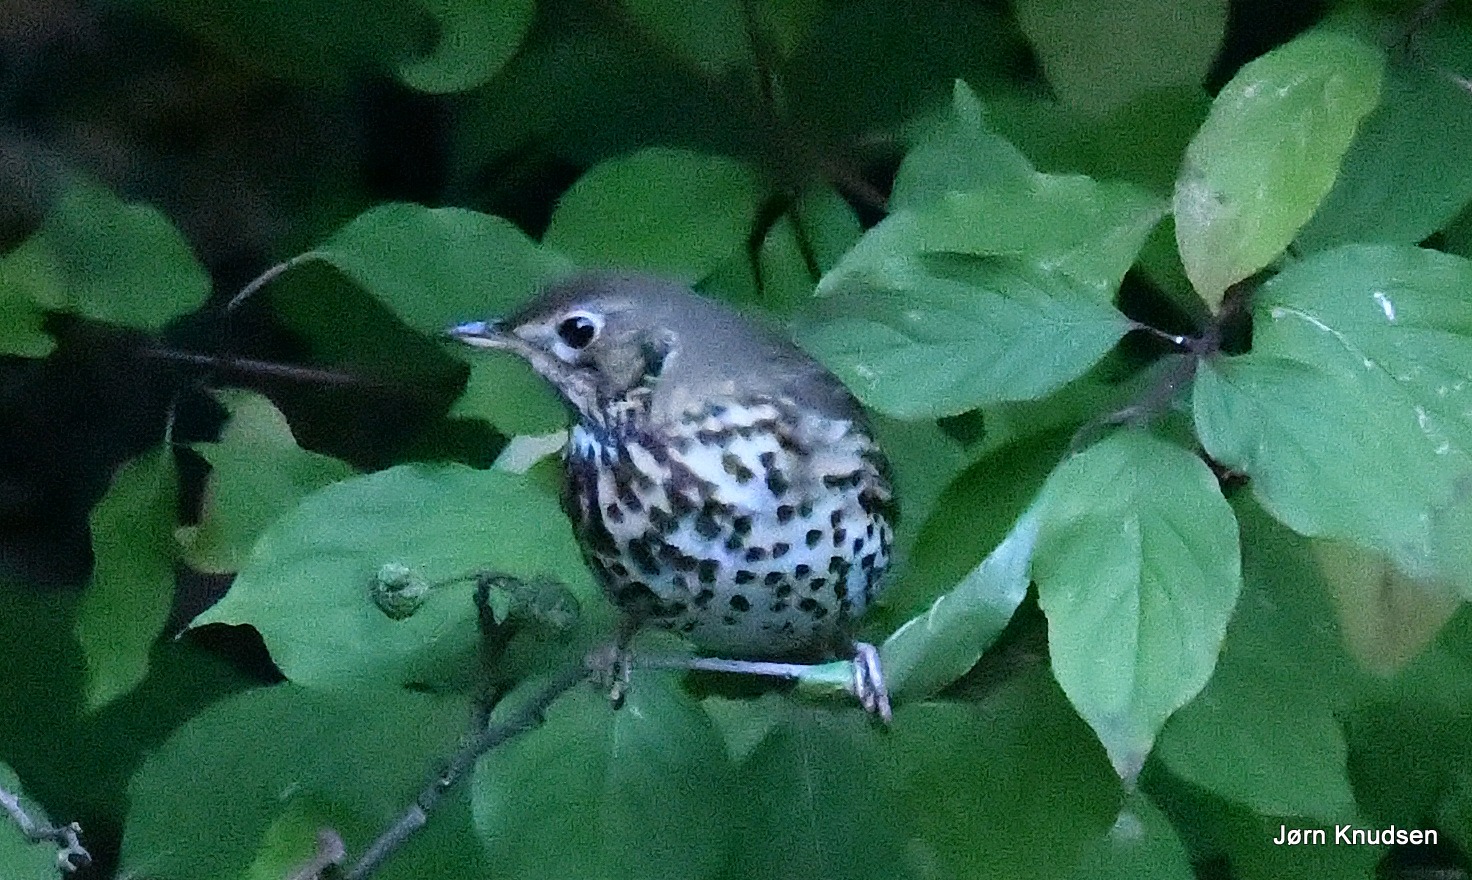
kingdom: Animalia
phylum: Chordata
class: Aves
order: Passeriformes
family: Turdidae
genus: Turdus
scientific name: Turdus philomelos
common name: Sangdrossel
